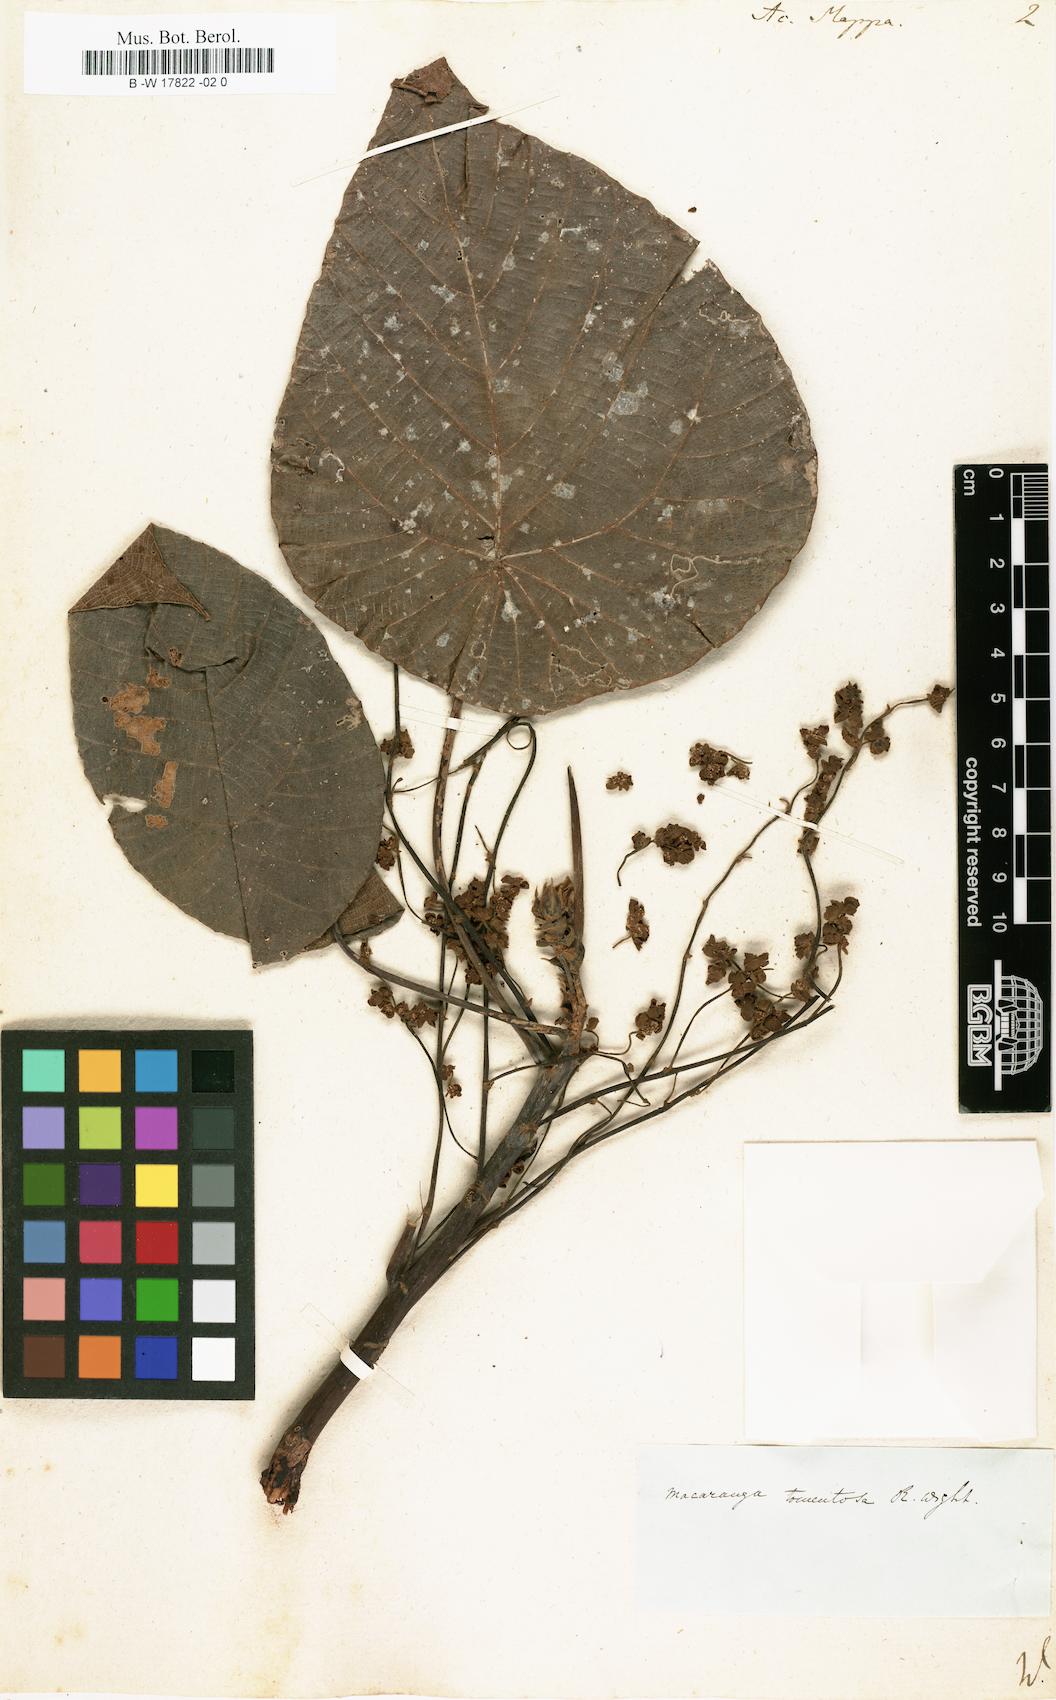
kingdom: Plantae
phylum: Tracheophyta
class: Magnoliopsida
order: Malpighiales
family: Euphorbiaceae
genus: Macaranga
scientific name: Macaranga mappa
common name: Pengua
